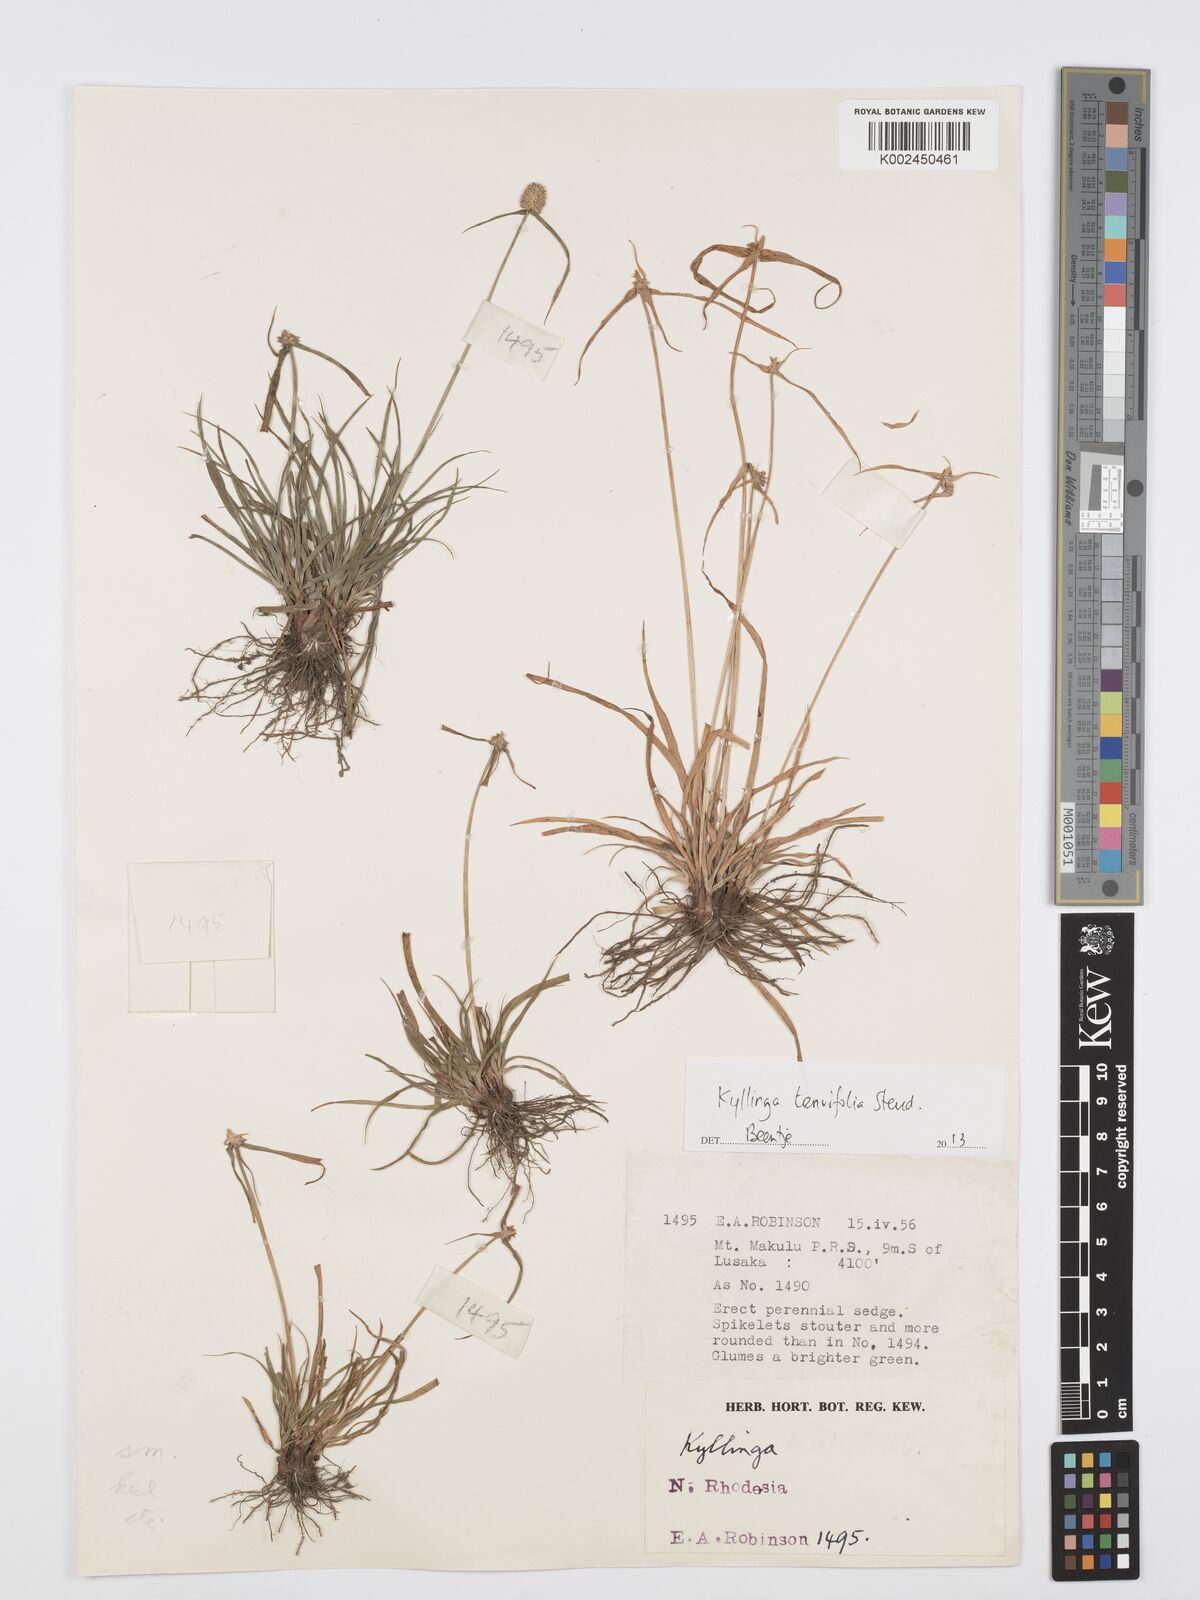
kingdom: Plantae
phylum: Tracheophyta
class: Liliopsida
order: Poales
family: Cyperaceae
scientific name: Cyperaceae
